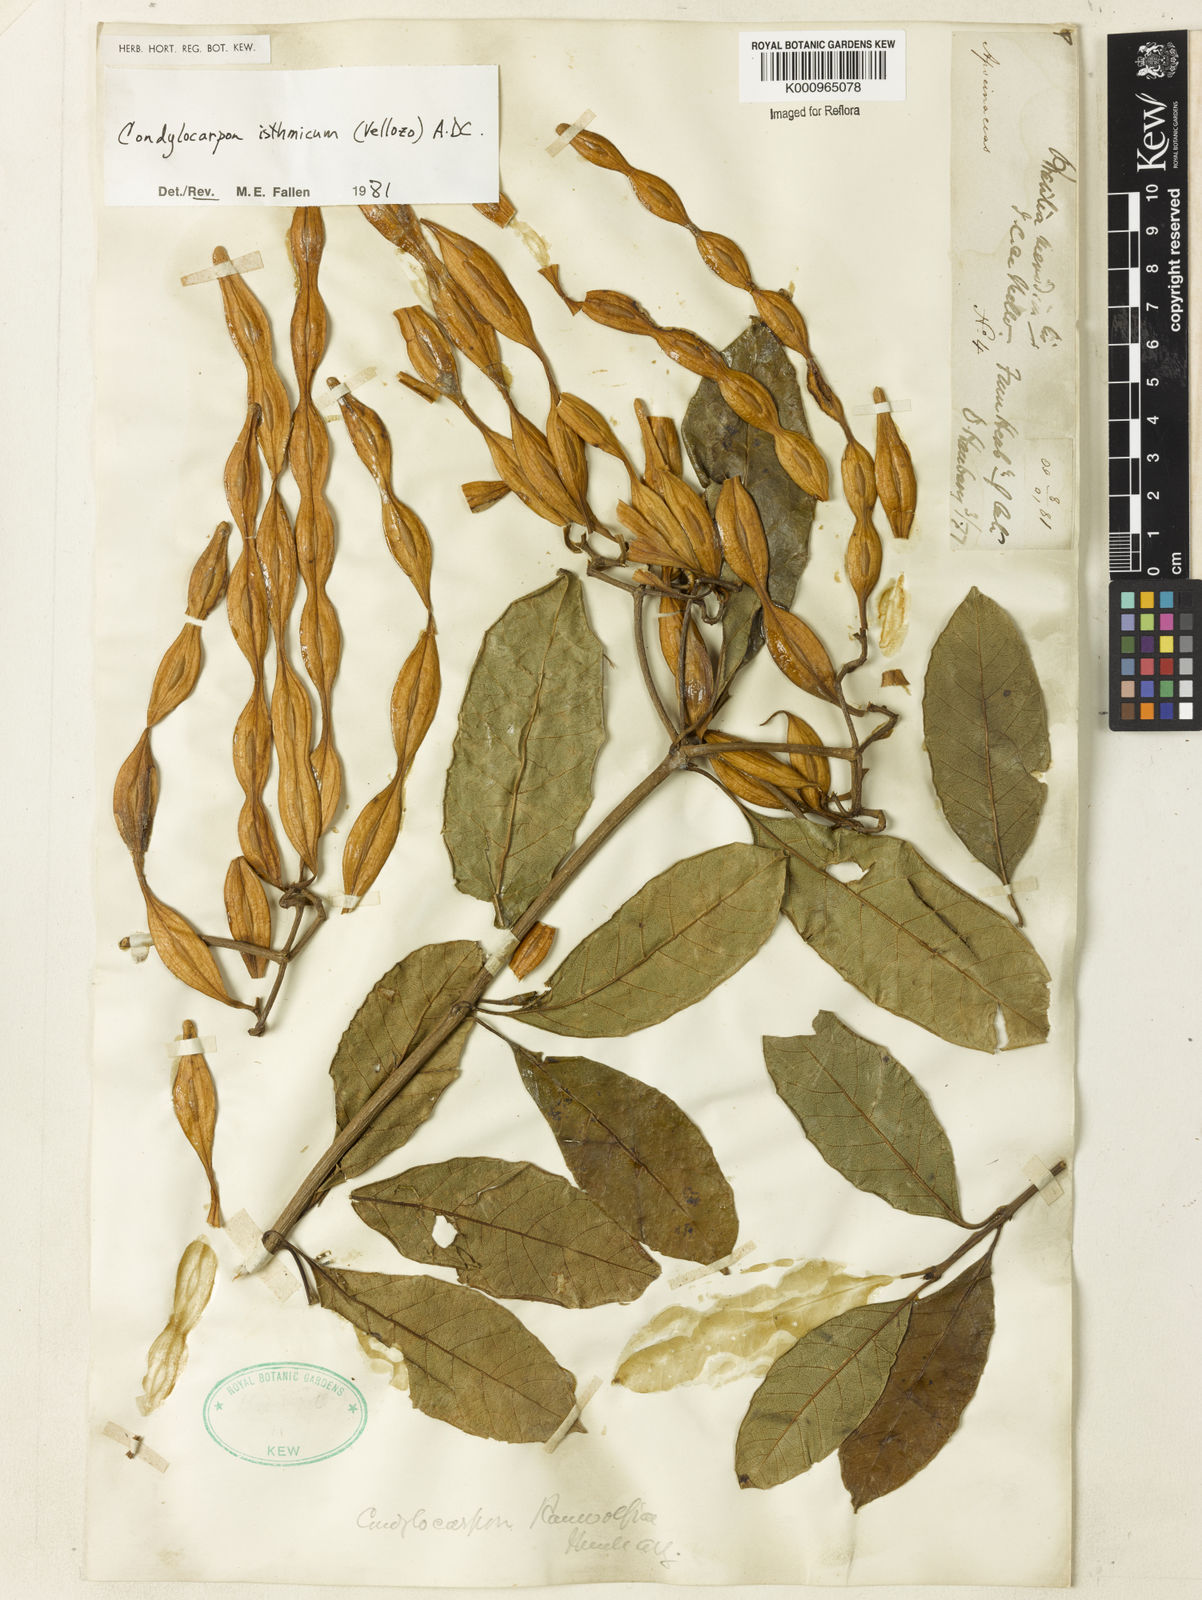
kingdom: Plantae
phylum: Tracheophyta
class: Magnoliopsida
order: Gentianales
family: Apocynaceae
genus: Condylocarpon
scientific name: Condylocarpon isthmicum
